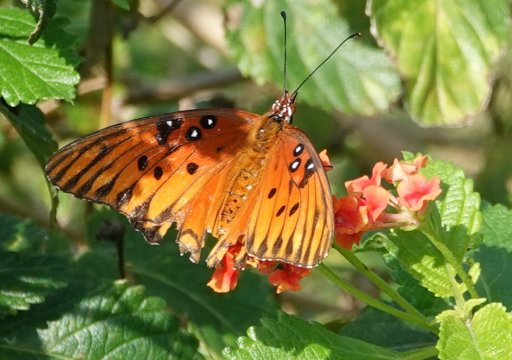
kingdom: Animalia
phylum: Arthropoda
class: Insecta
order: Lepidoptera
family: Nymphalidae
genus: Dione
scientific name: Dione vanillae
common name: Gulf Fritillary
